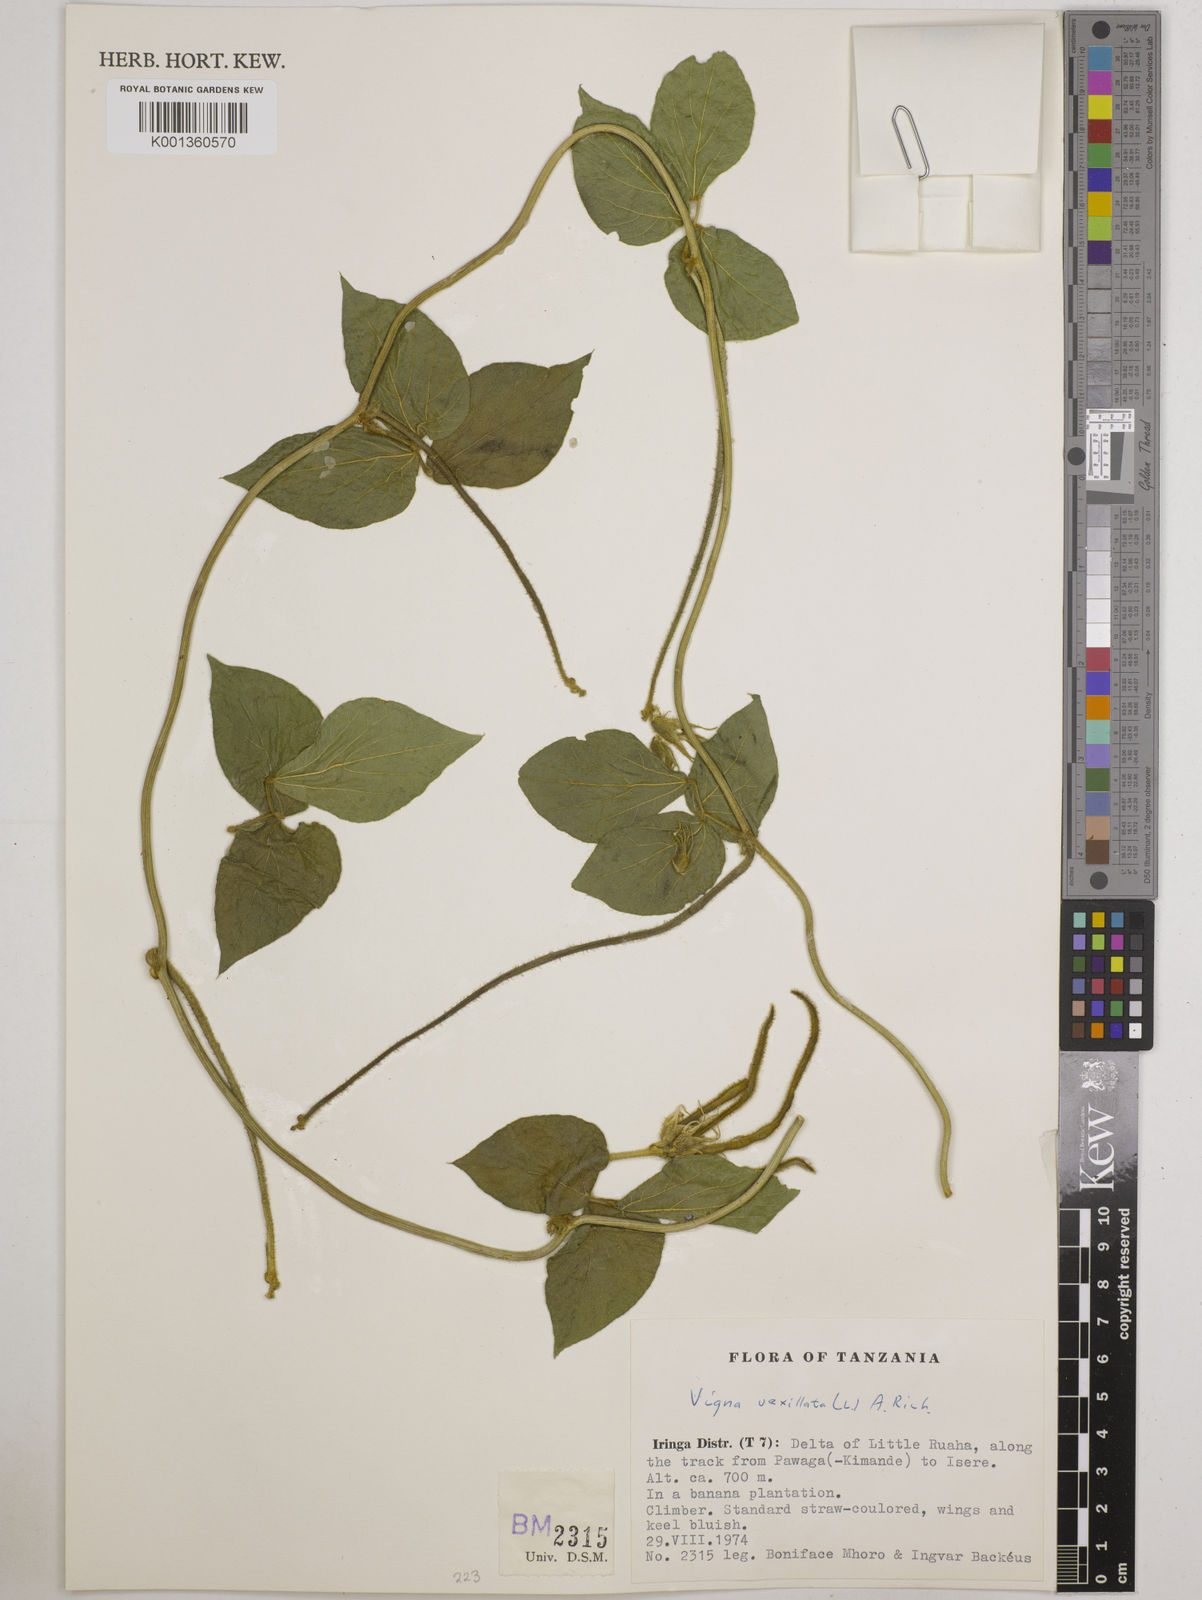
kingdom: Plantae
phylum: Tracheophyta
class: Magnoliopsida
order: Fabales
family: Fabaceae
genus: Vigna
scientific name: Vigna vexillata
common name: Zombi pea
